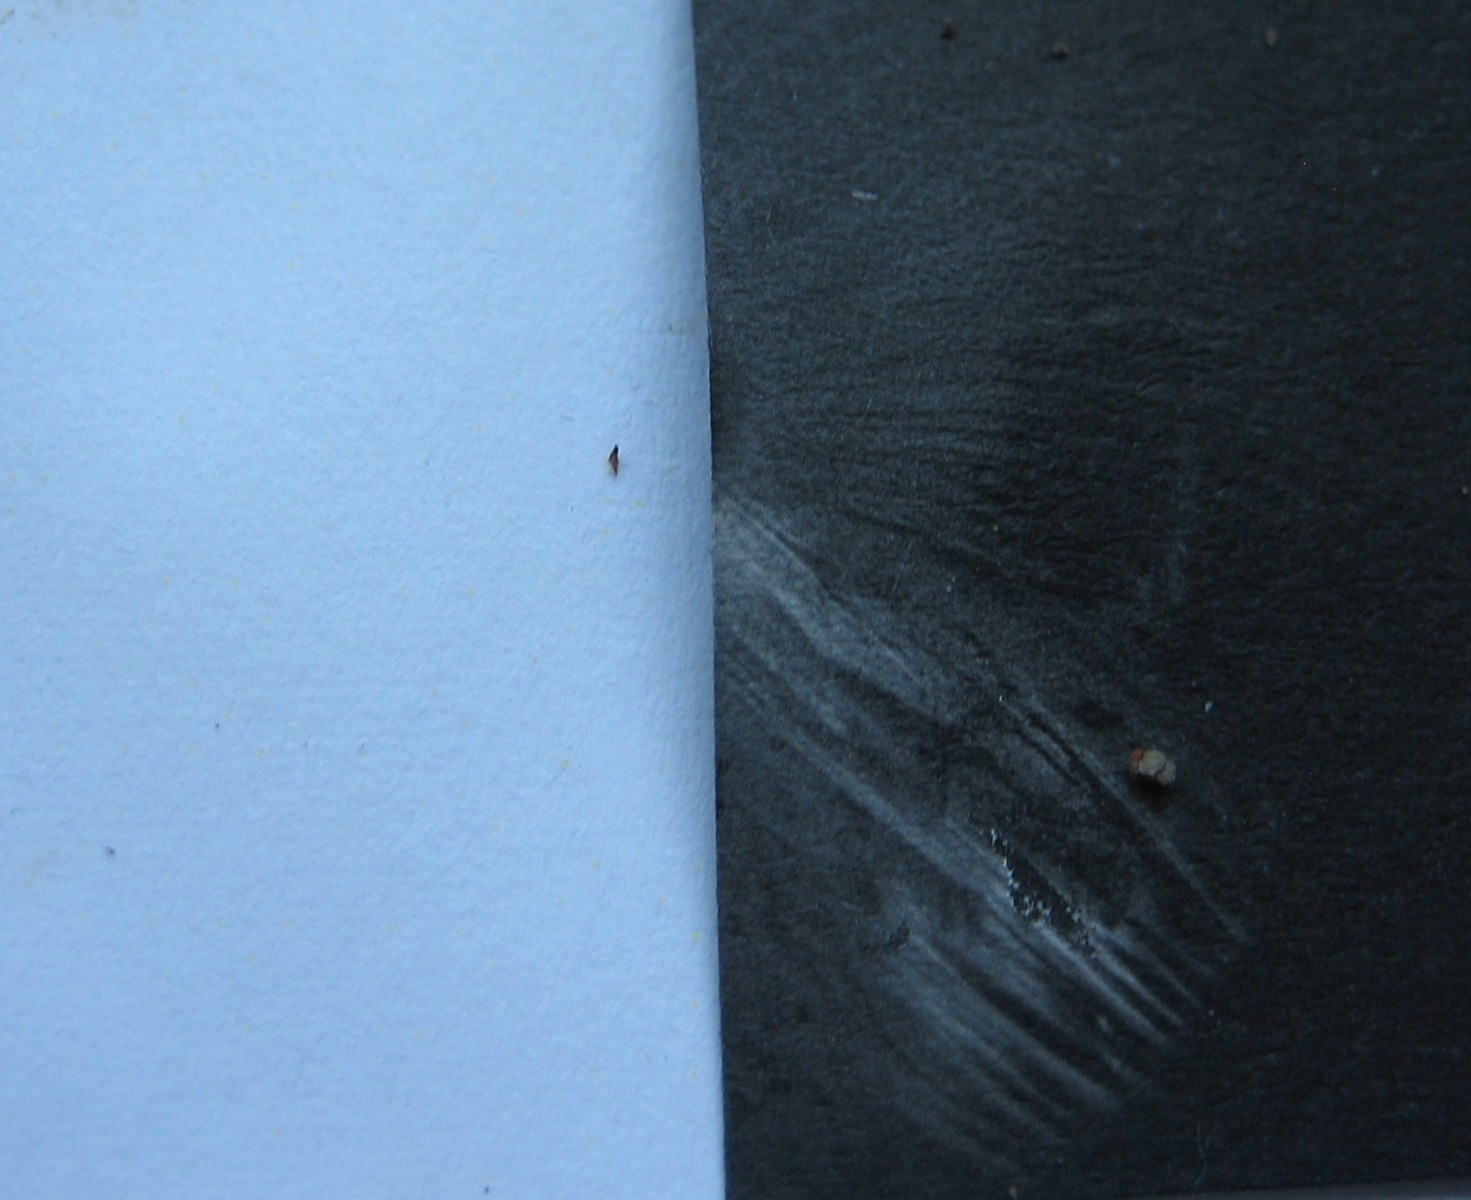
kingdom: Fungi
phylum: Basidiomycota
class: Agaricomycetes
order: Agaricales
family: Tricholomataceae
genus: Tricholoma
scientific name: Tricholoma lascivum
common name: stinkende ridderhat
